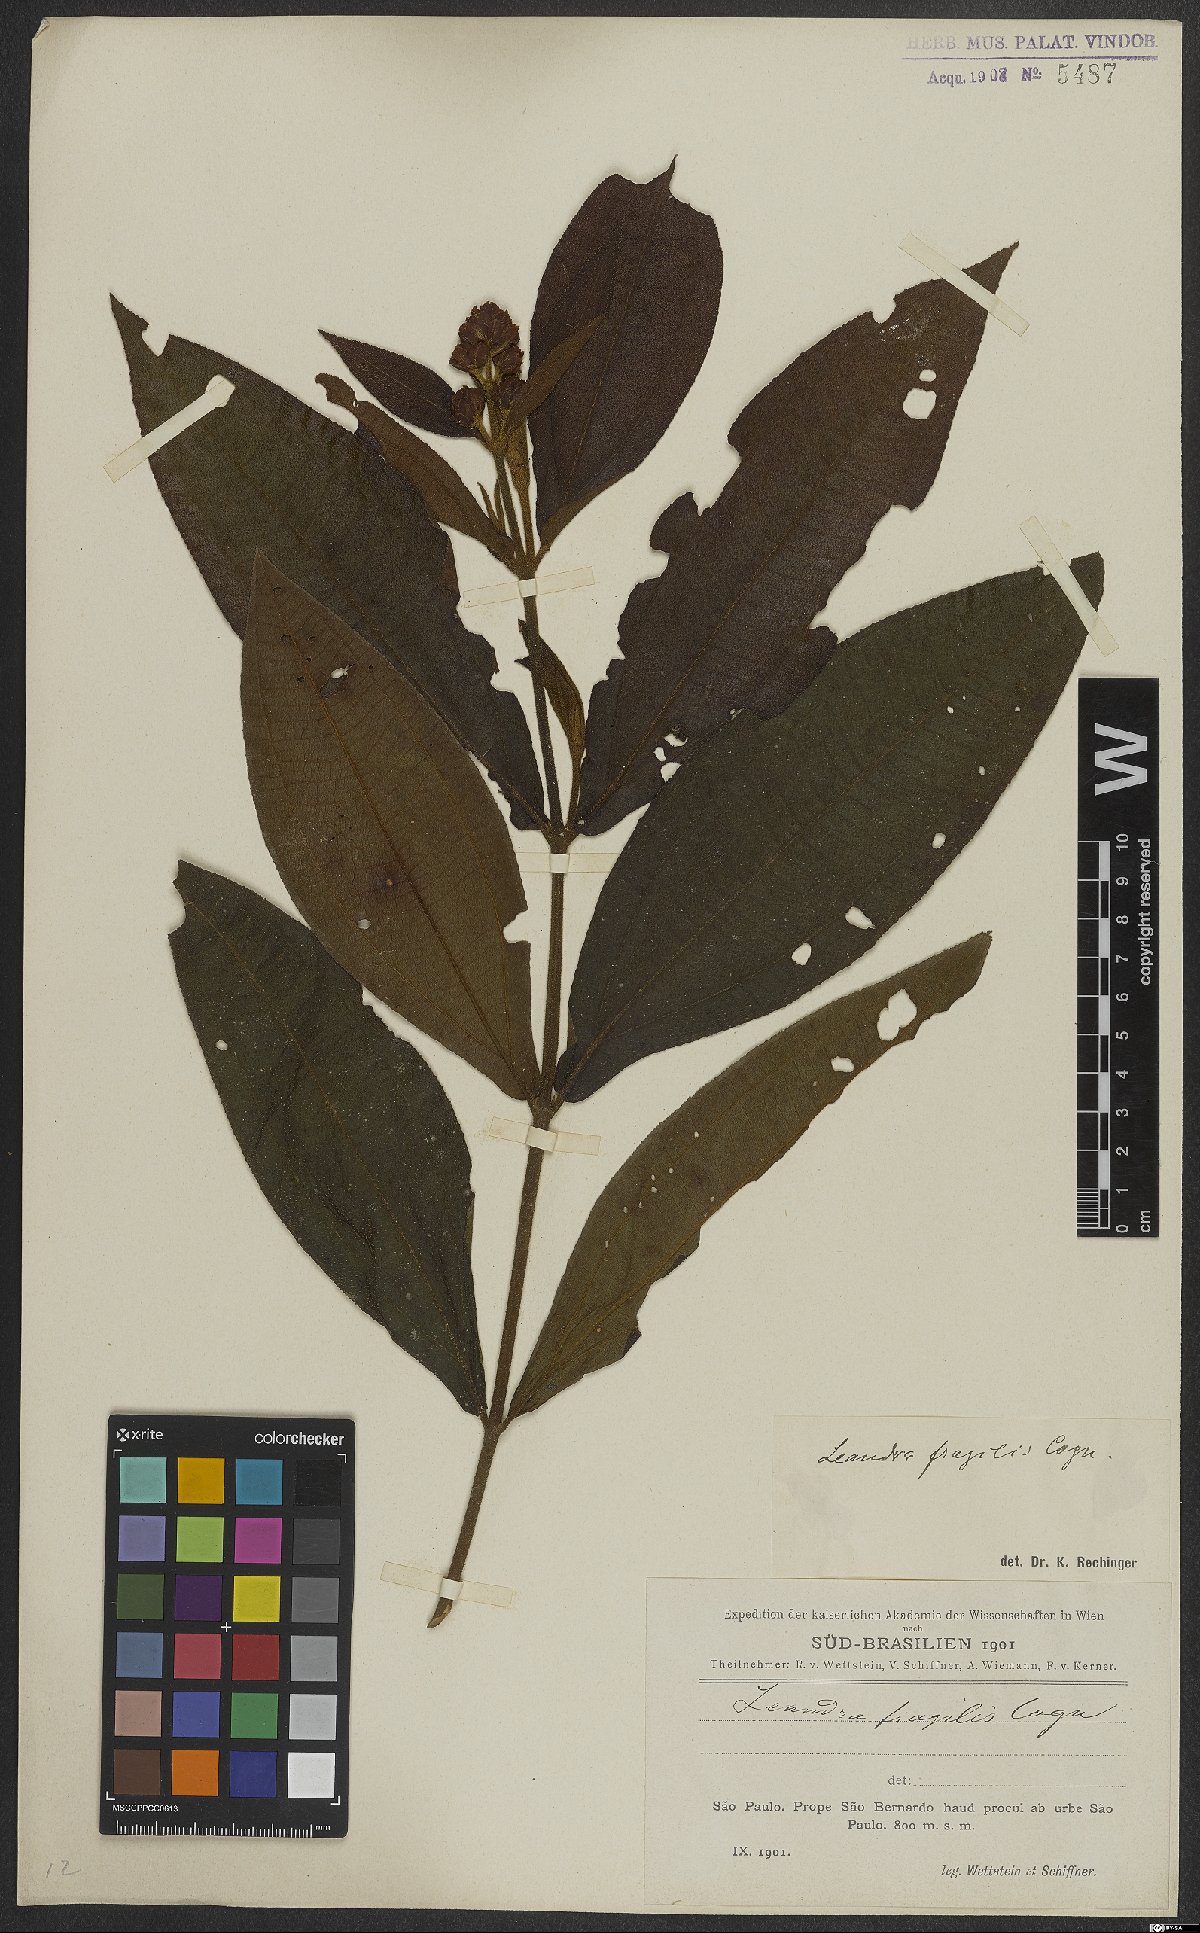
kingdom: Plantae
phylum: Tracheophyta
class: Magnoliopsida
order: Myrtales
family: Melastomataceae
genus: Miconia
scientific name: Miconia melastomoides
